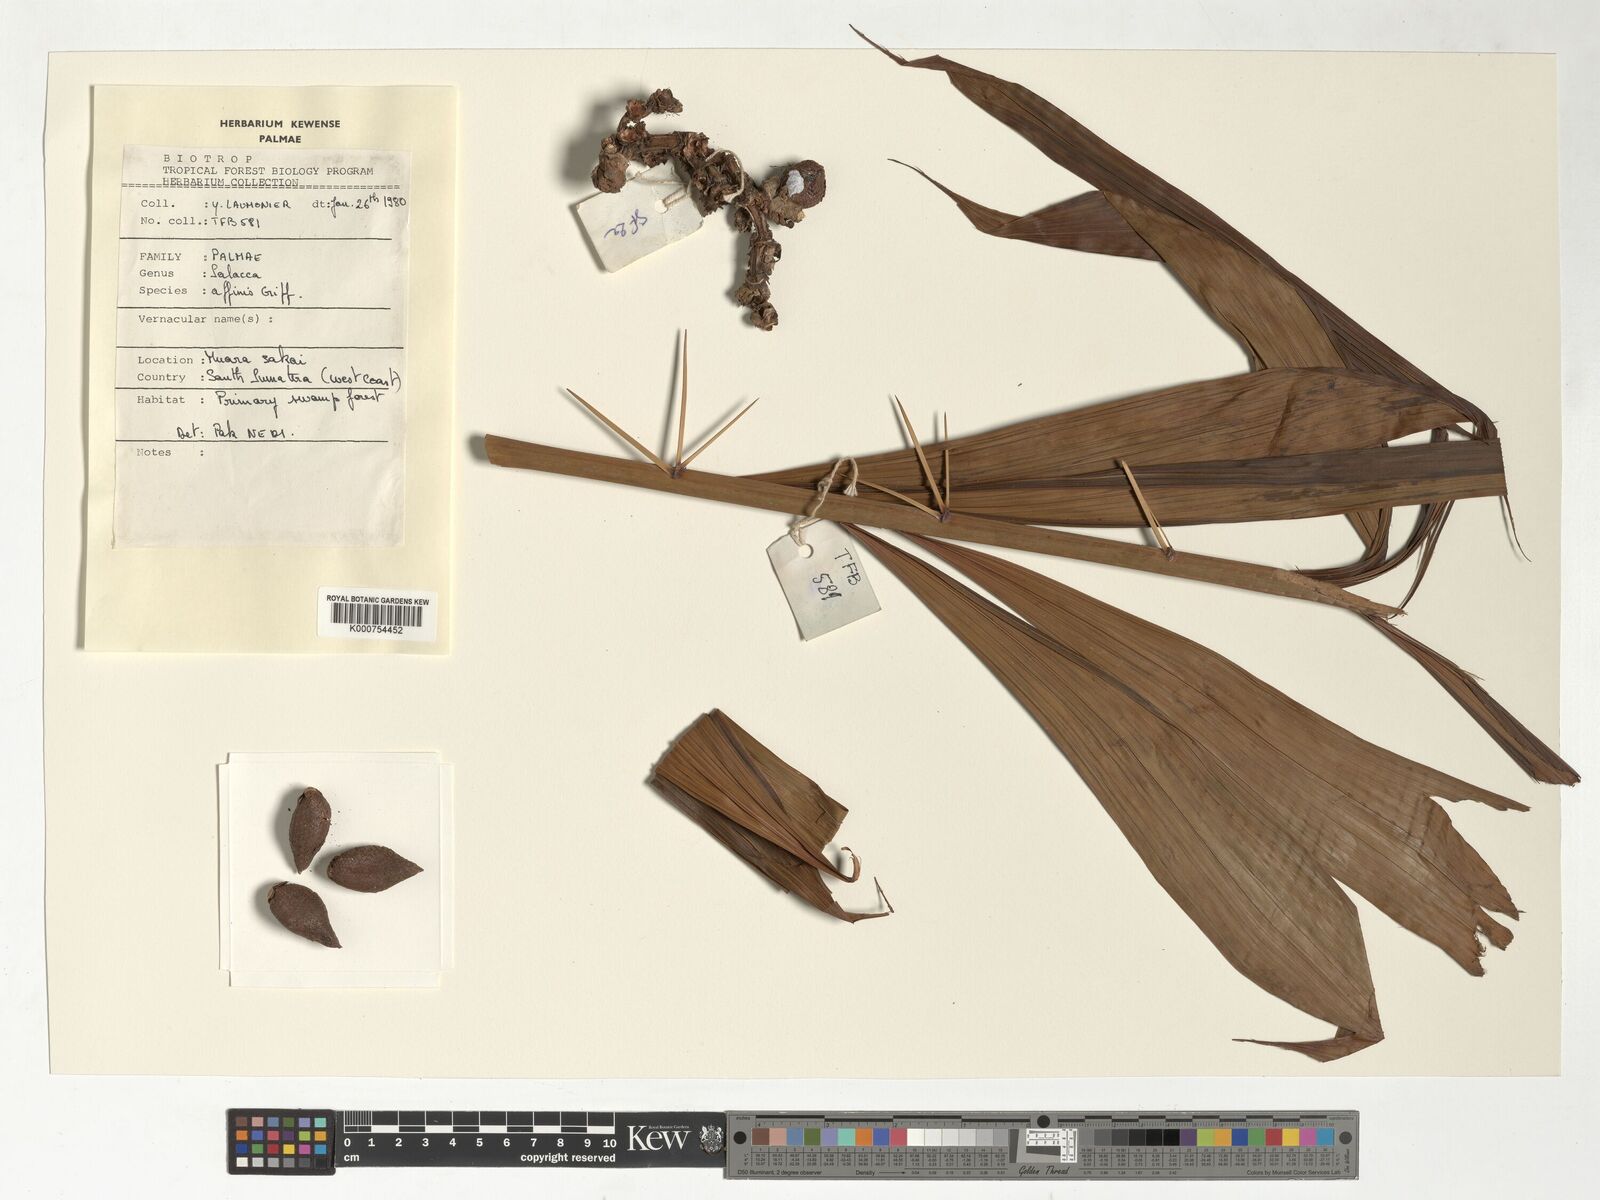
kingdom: Plantae
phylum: Tracheophyta
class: Liliopsida
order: Arecales
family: Arecaceae
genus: Salacca
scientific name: Salacca affinis
